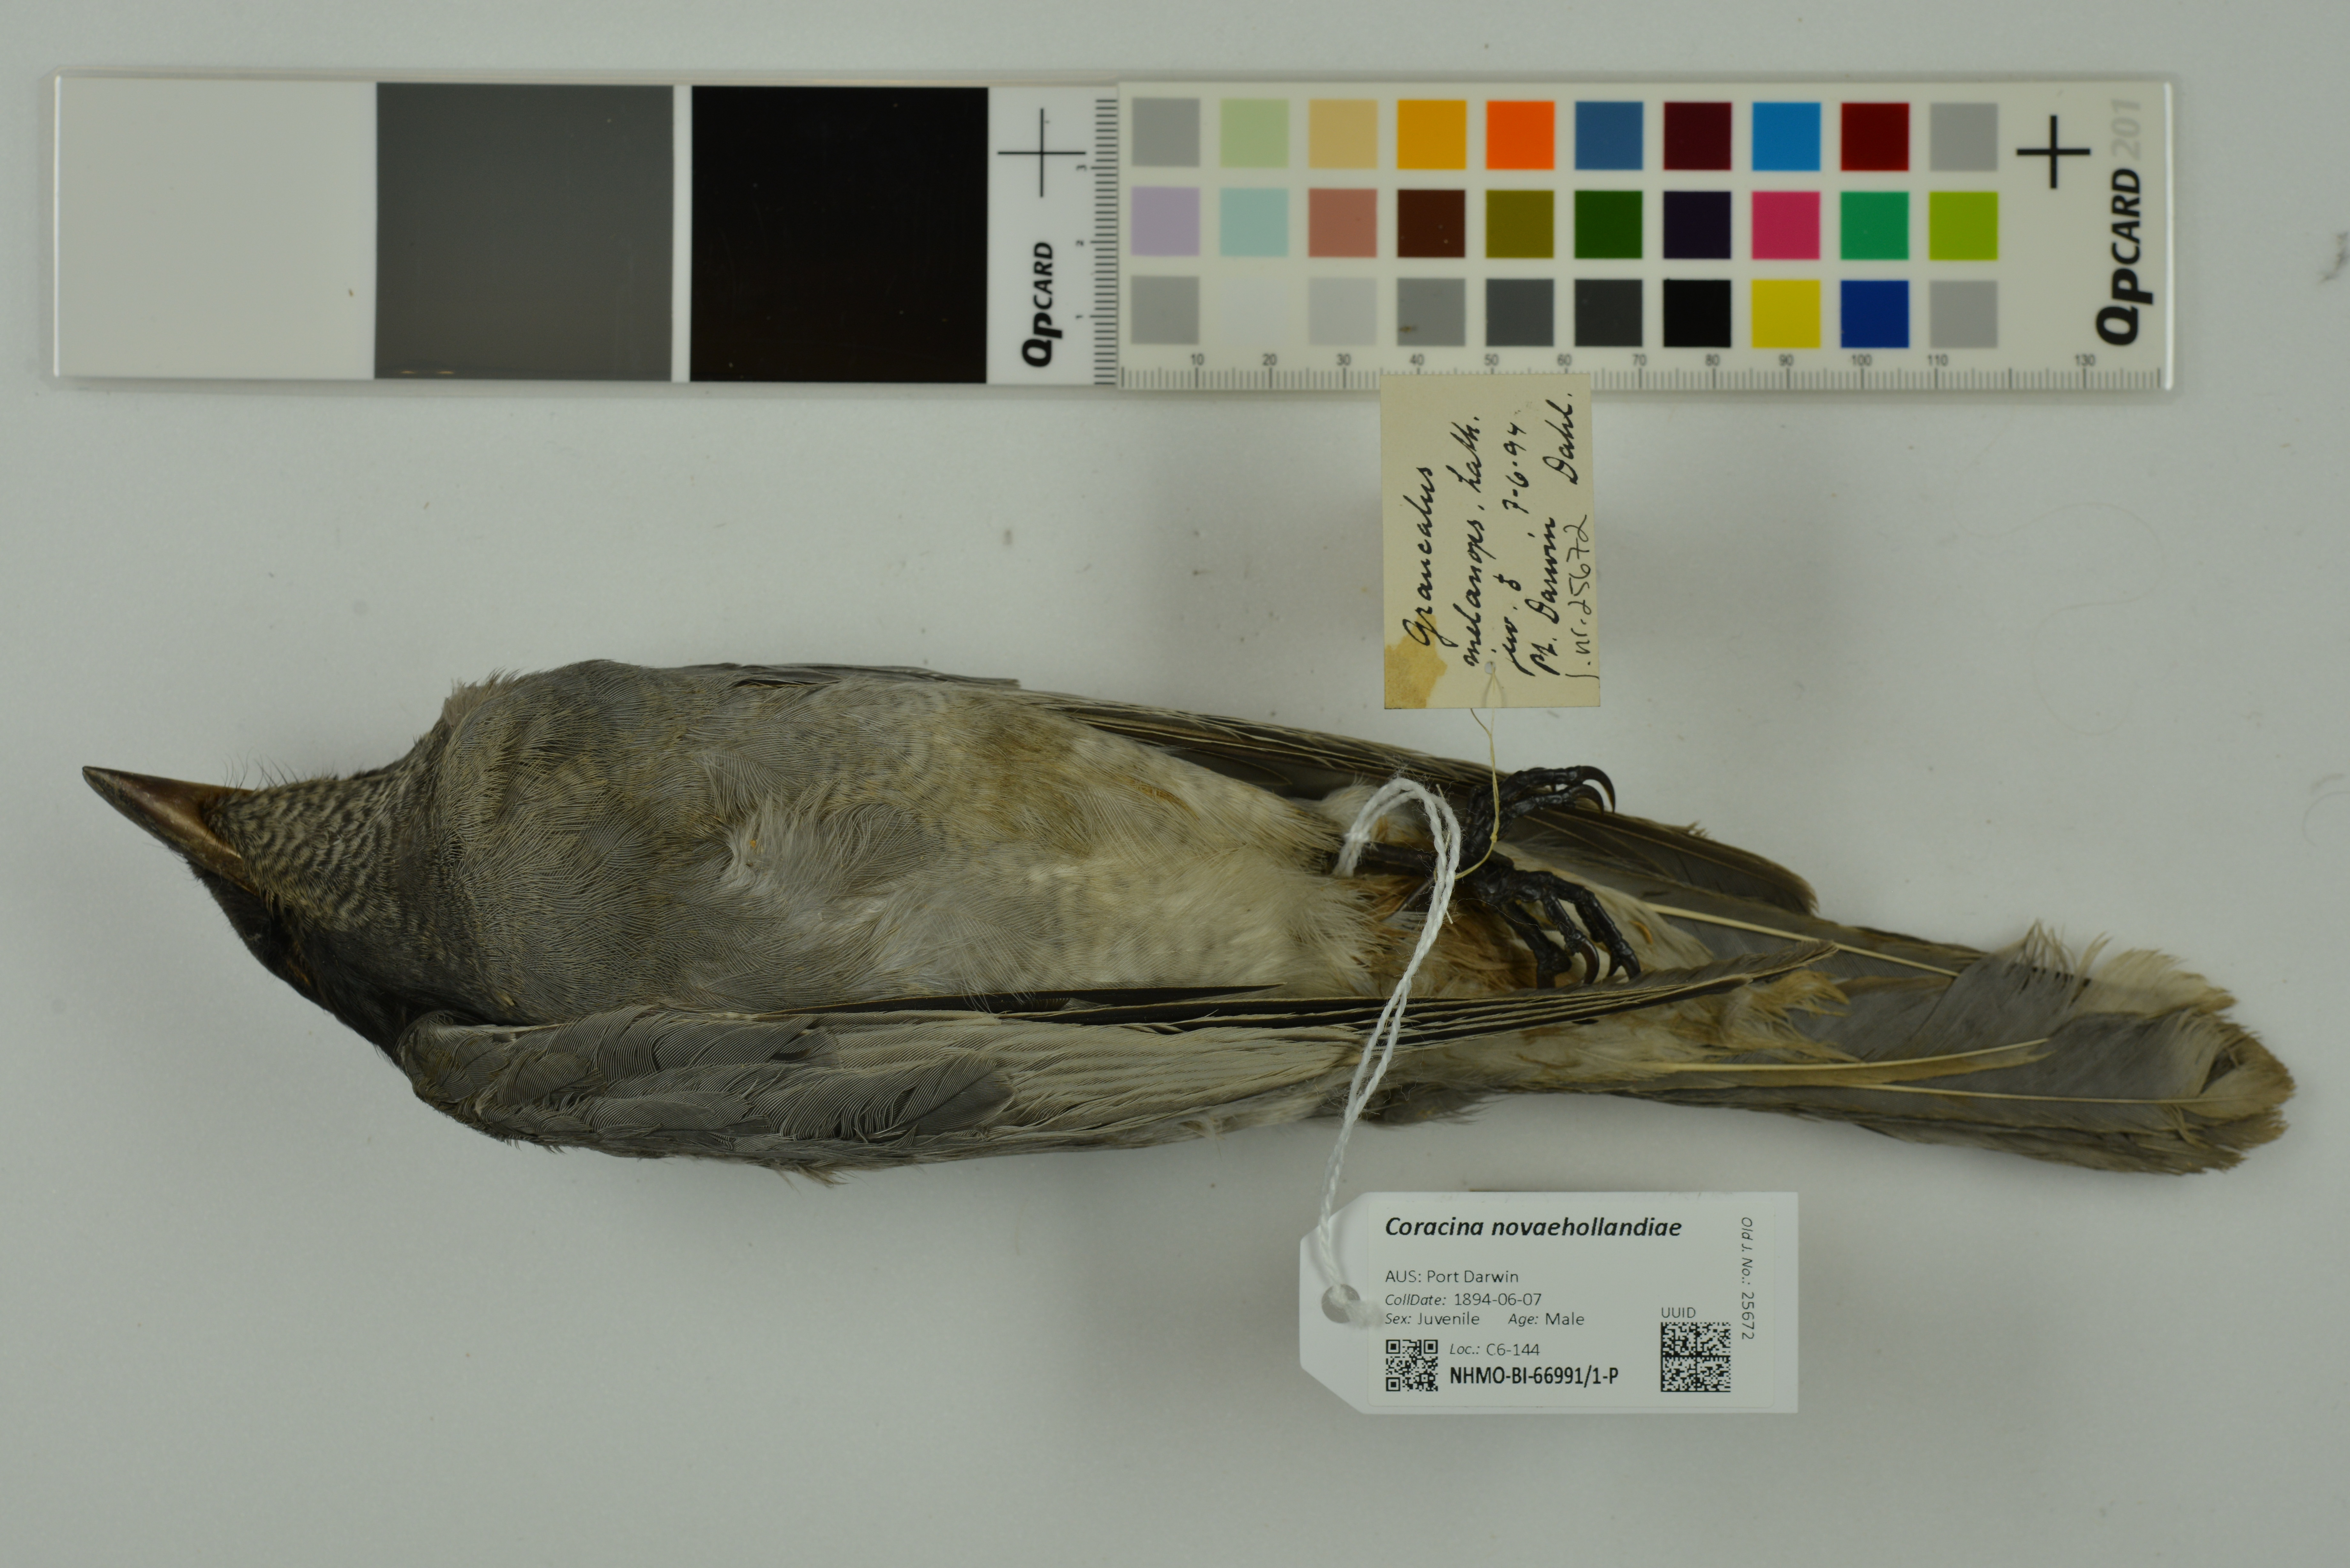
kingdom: Animalia
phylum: Chordata
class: Aves
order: Passeriformes
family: Campephagidae
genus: Coracina
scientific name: Coracina novaehollandiae
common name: Black-faced cuckooshrike
